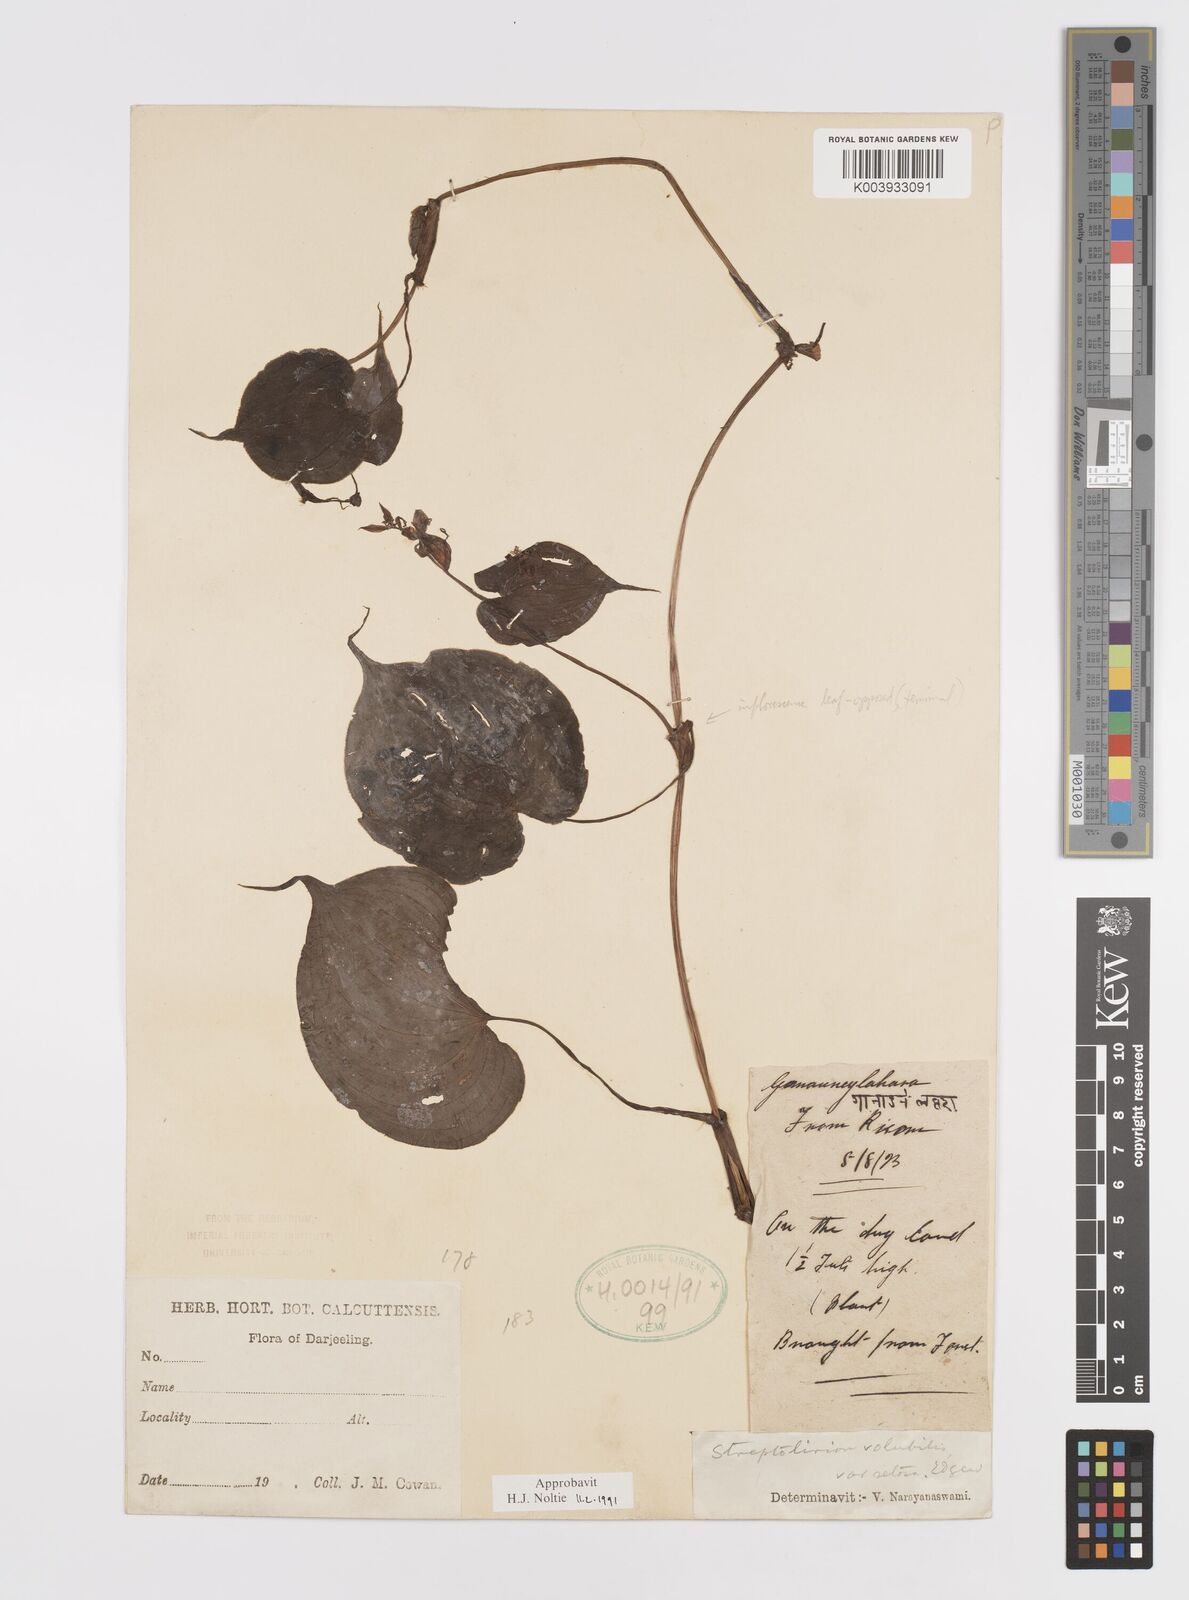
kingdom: Plantae
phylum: Tracheophyta
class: Liliopsida
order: Commelinales
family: Commelinaceae
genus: Streptolirion
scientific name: Streptolirion volubile
